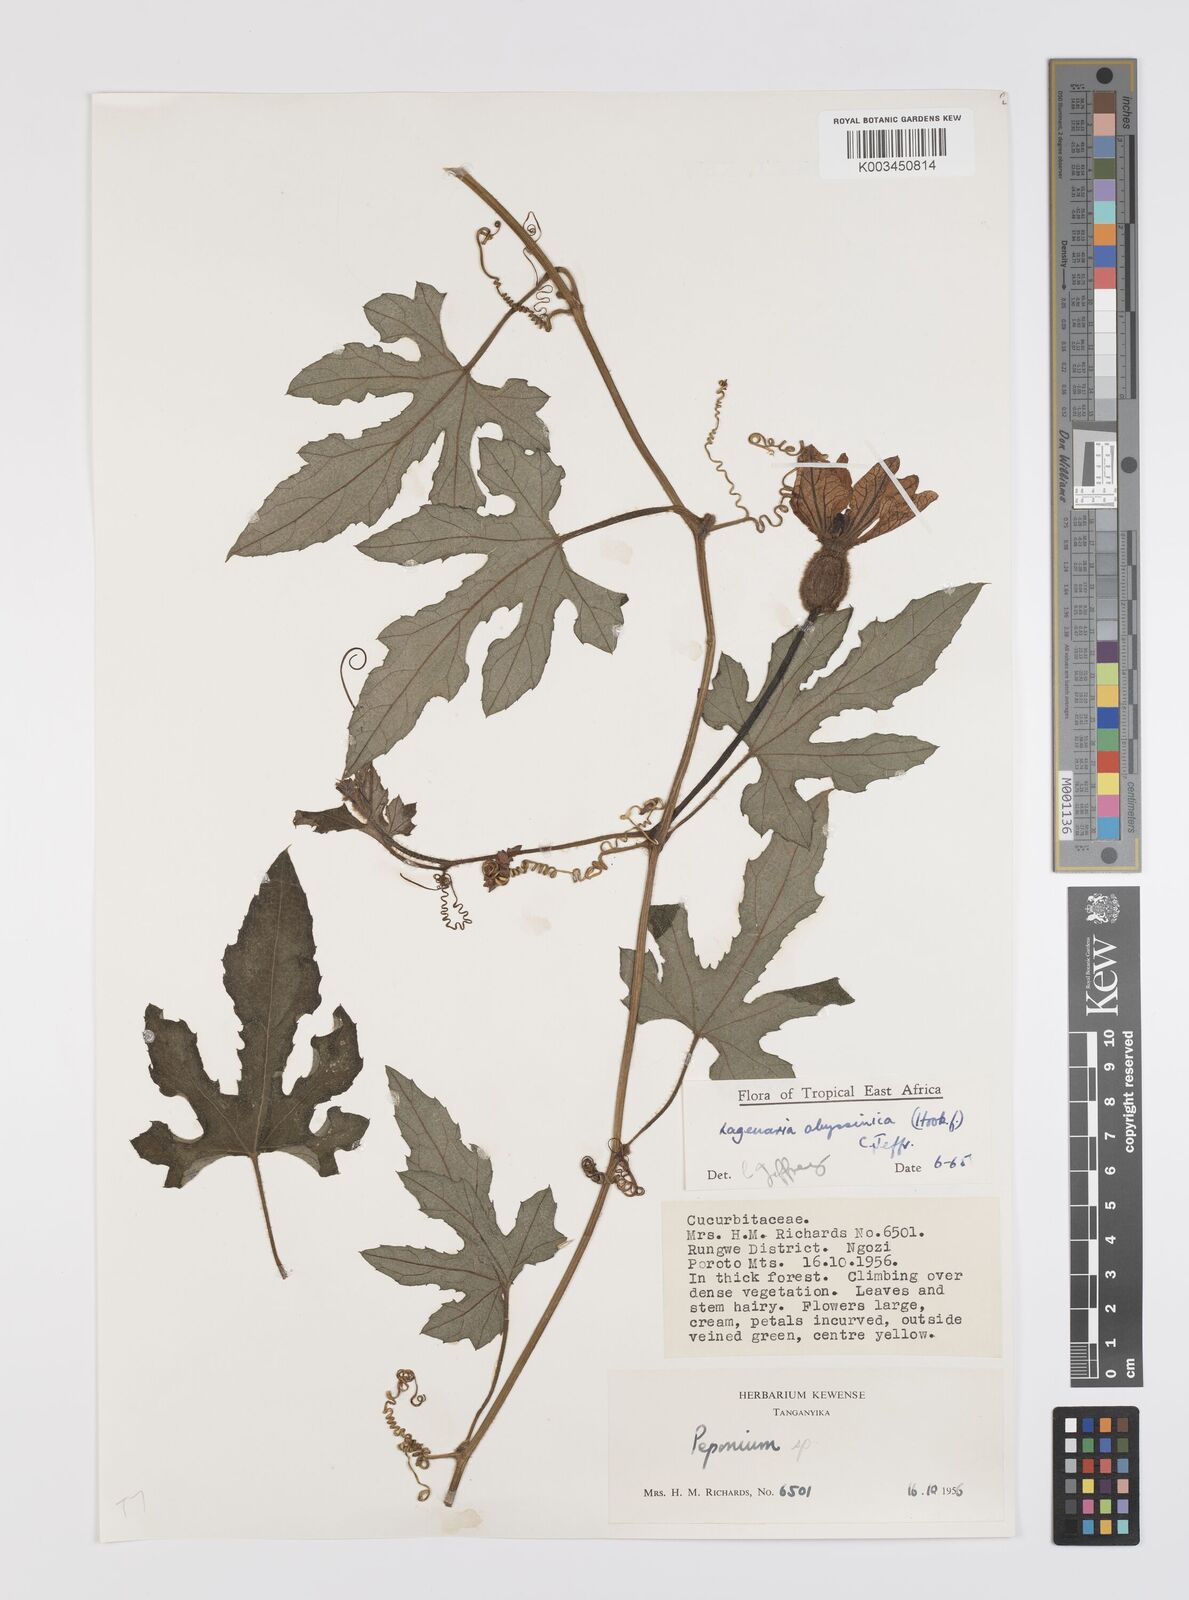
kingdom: Plantae
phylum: Tracheophyta
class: Magnoliopsida
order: Cucurbitales
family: Cucurbitaceae
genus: Lagenaria
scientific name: Lagenaria abyssinica
